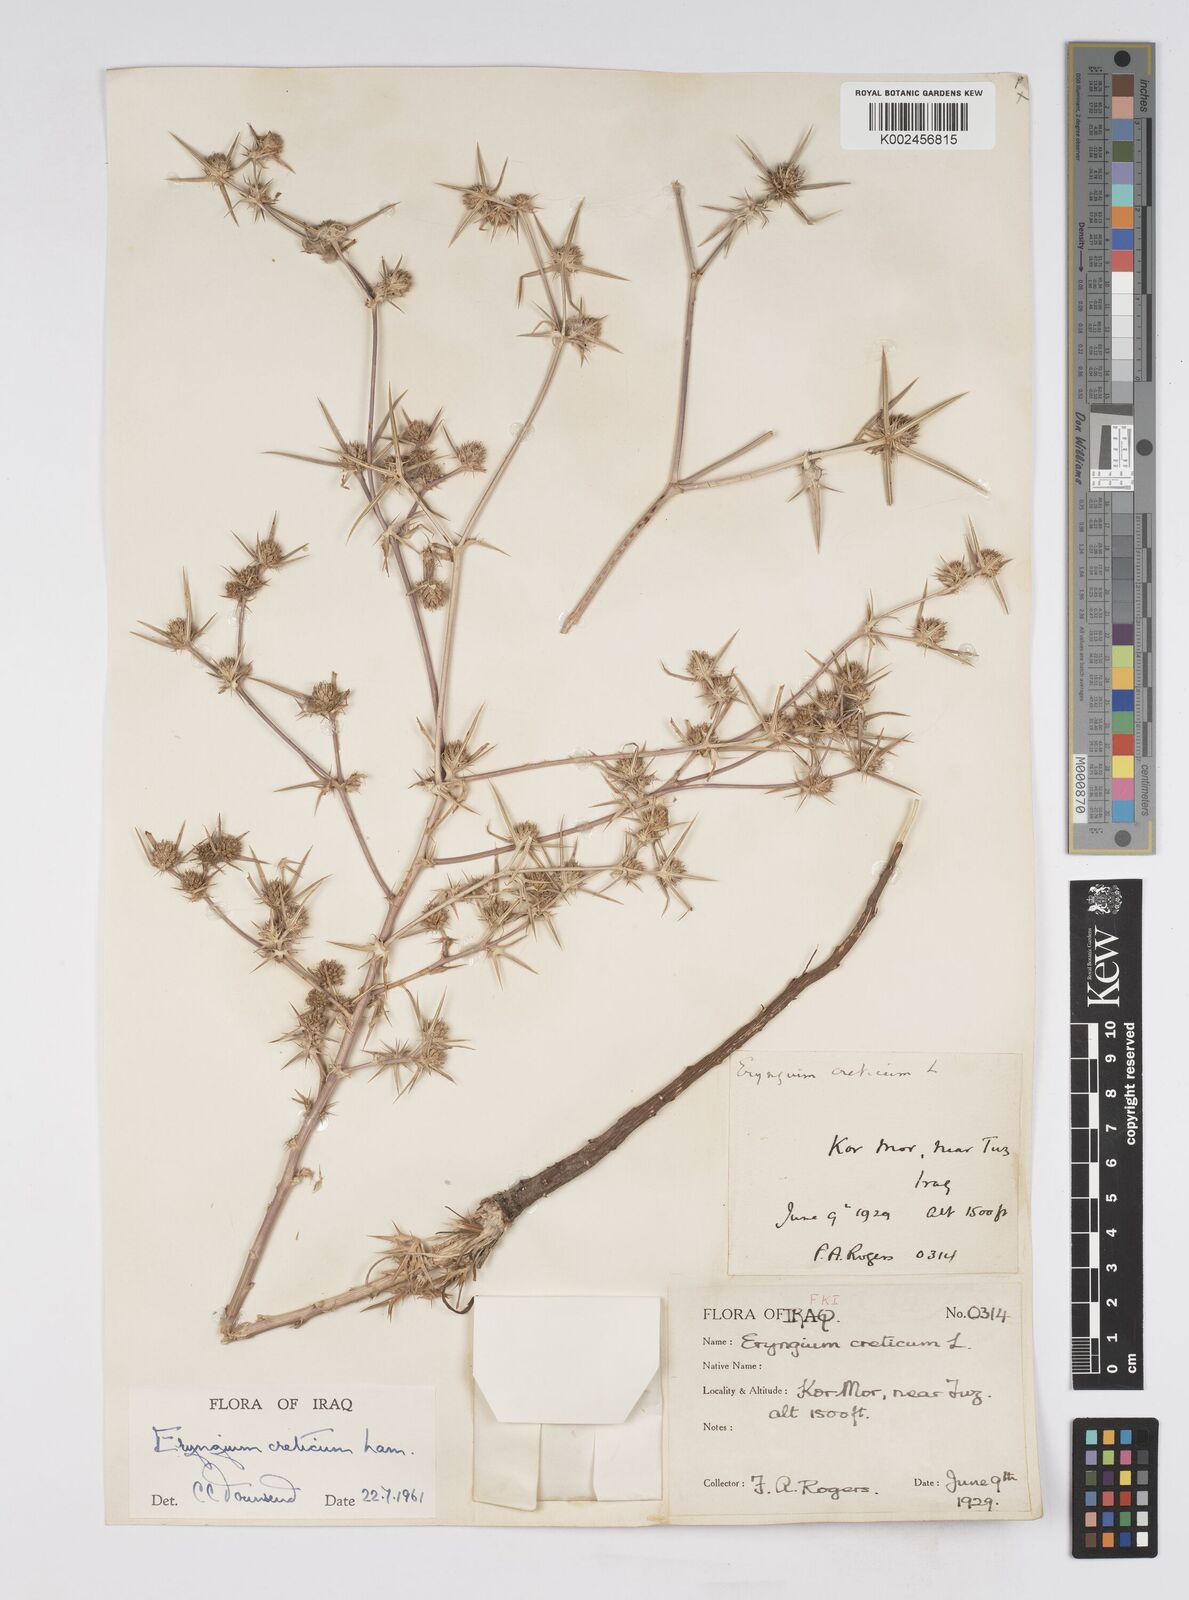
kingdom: Plantae
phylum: Tracheophyta
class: Magnoliopsida
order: Apiales
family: Apiaceae
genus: Eryngium
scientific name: Eryngium creticum
